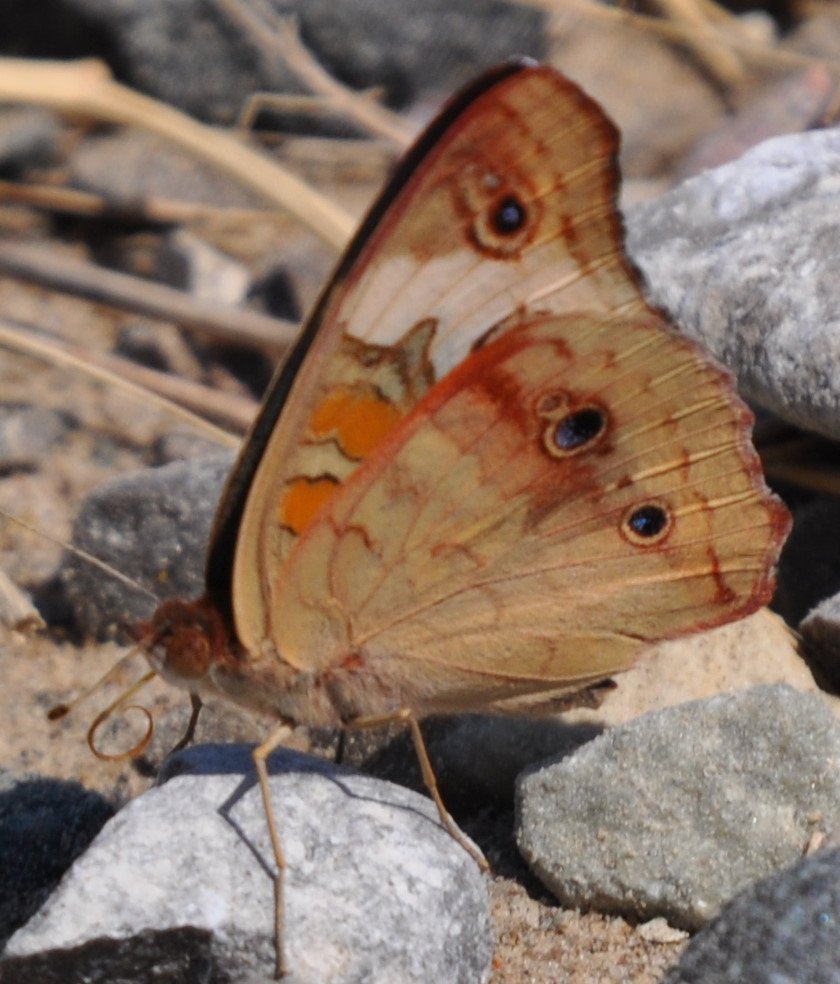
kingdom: Animalia
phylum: Arthropoda
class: Insecta
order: Lepidoptera
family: Nymphalidae
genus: Junonia
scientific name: Junonia coenia
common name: Common Buckeye
